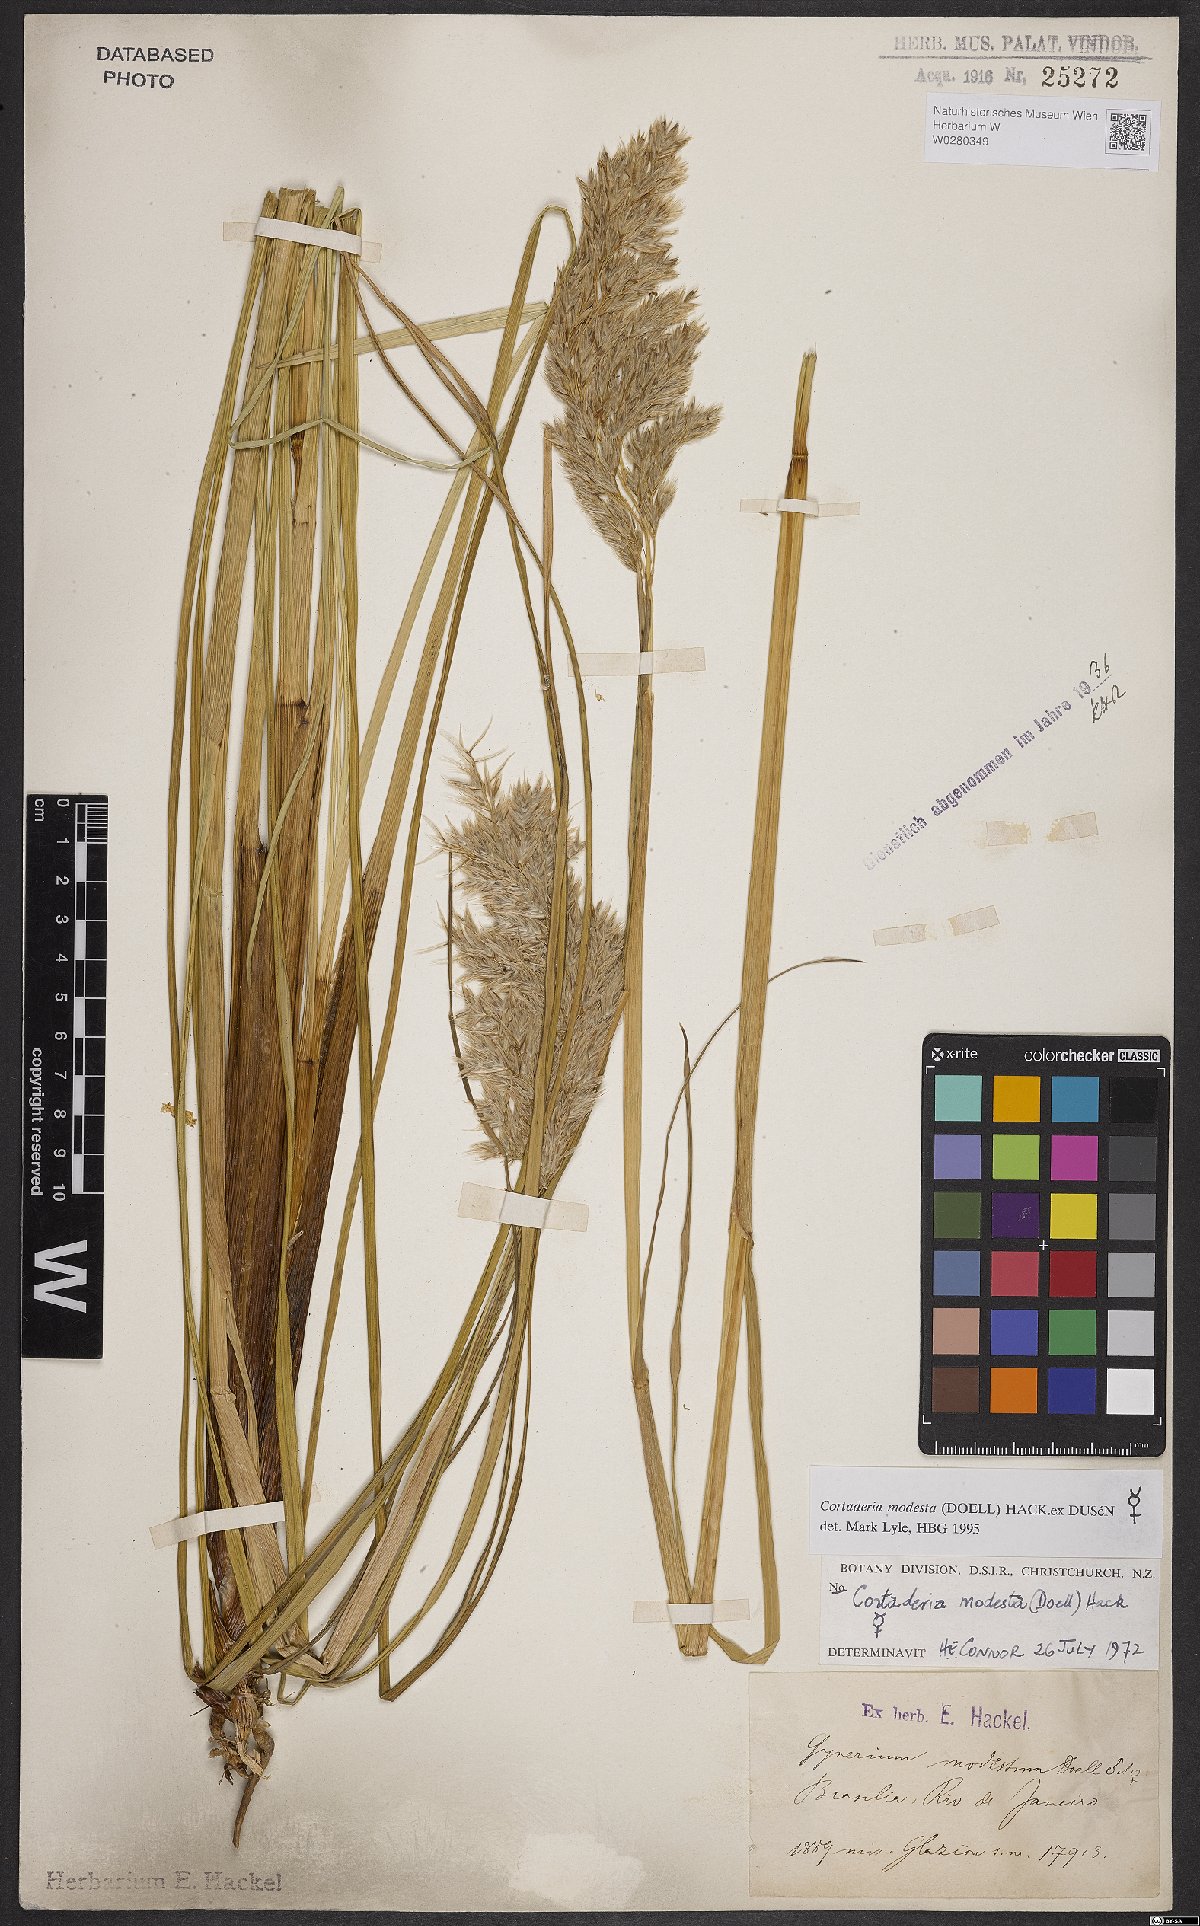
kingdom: Plantae
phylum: Tracheophyta
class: Liliopsida
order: Poales
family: Poaceae
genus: Cortaderia
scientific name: Cortaderia modesta
